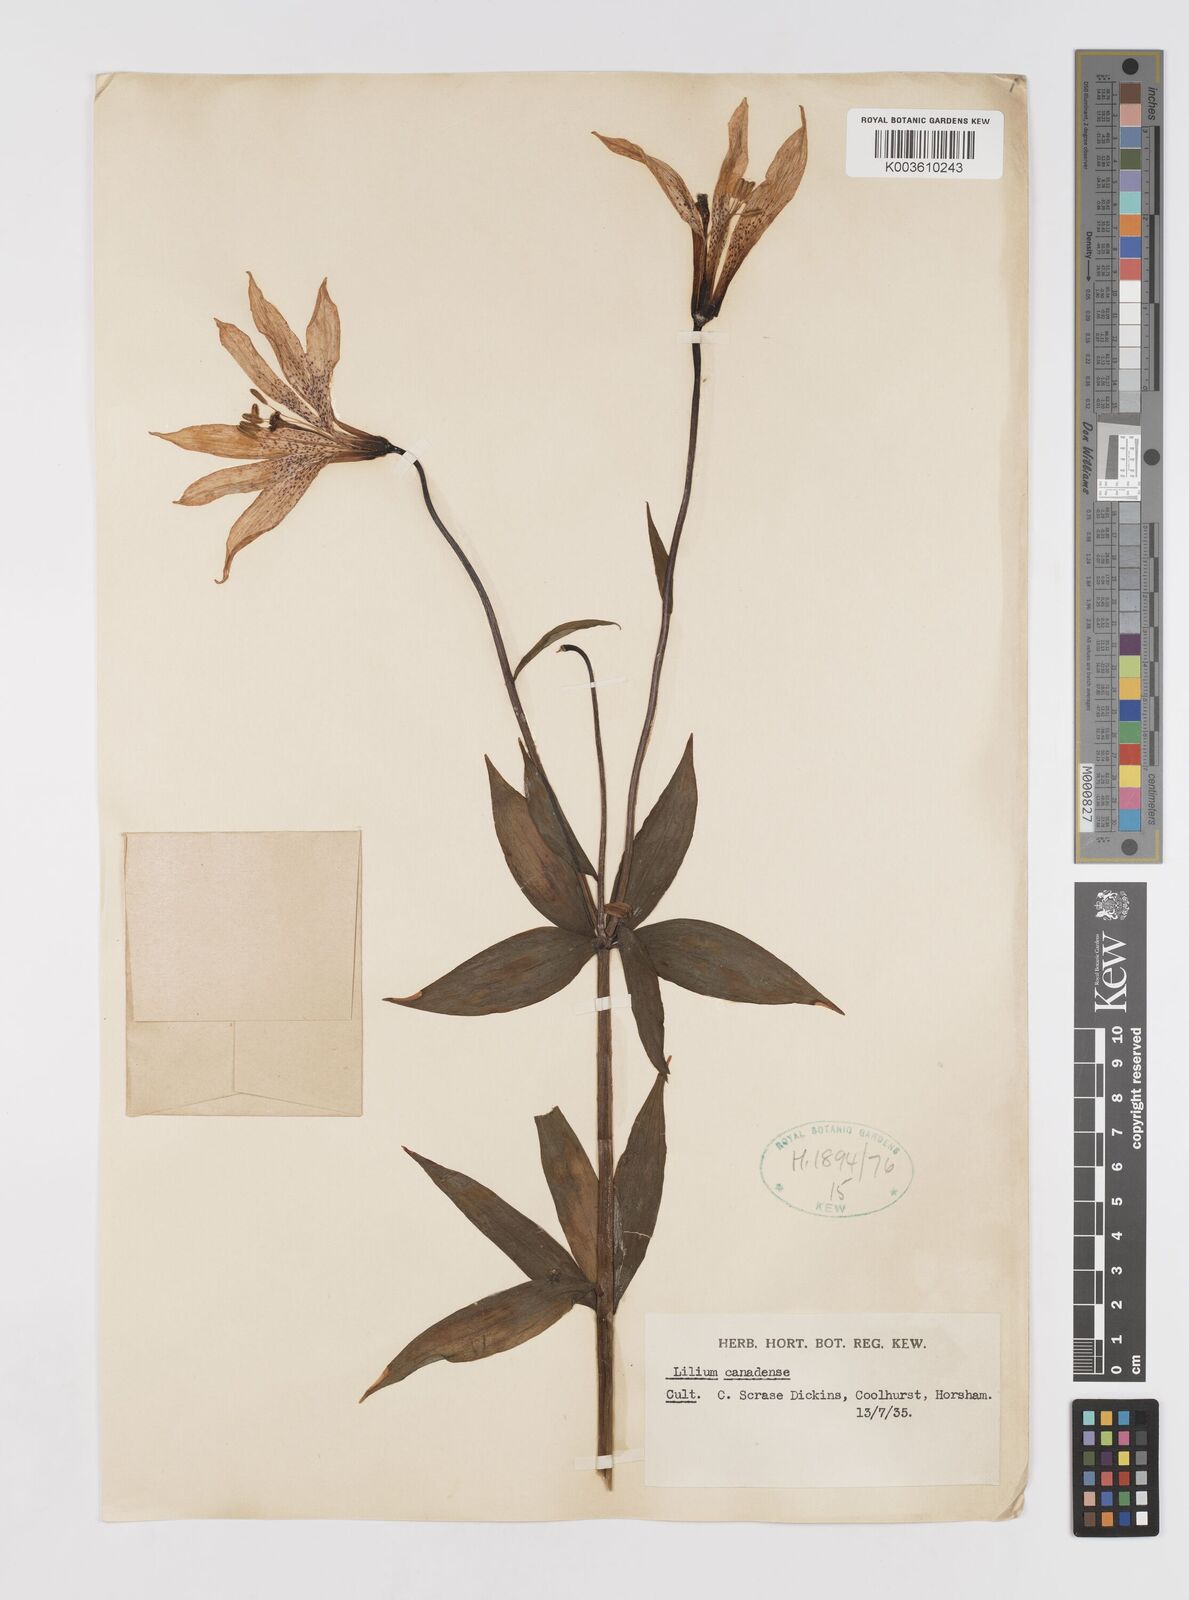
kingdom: Plantae
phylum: Tracheophyta
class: Liliopsida
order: Liliales
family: Liliaceae
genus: Lilium
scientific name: Lilium canadense
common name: Canada lily
